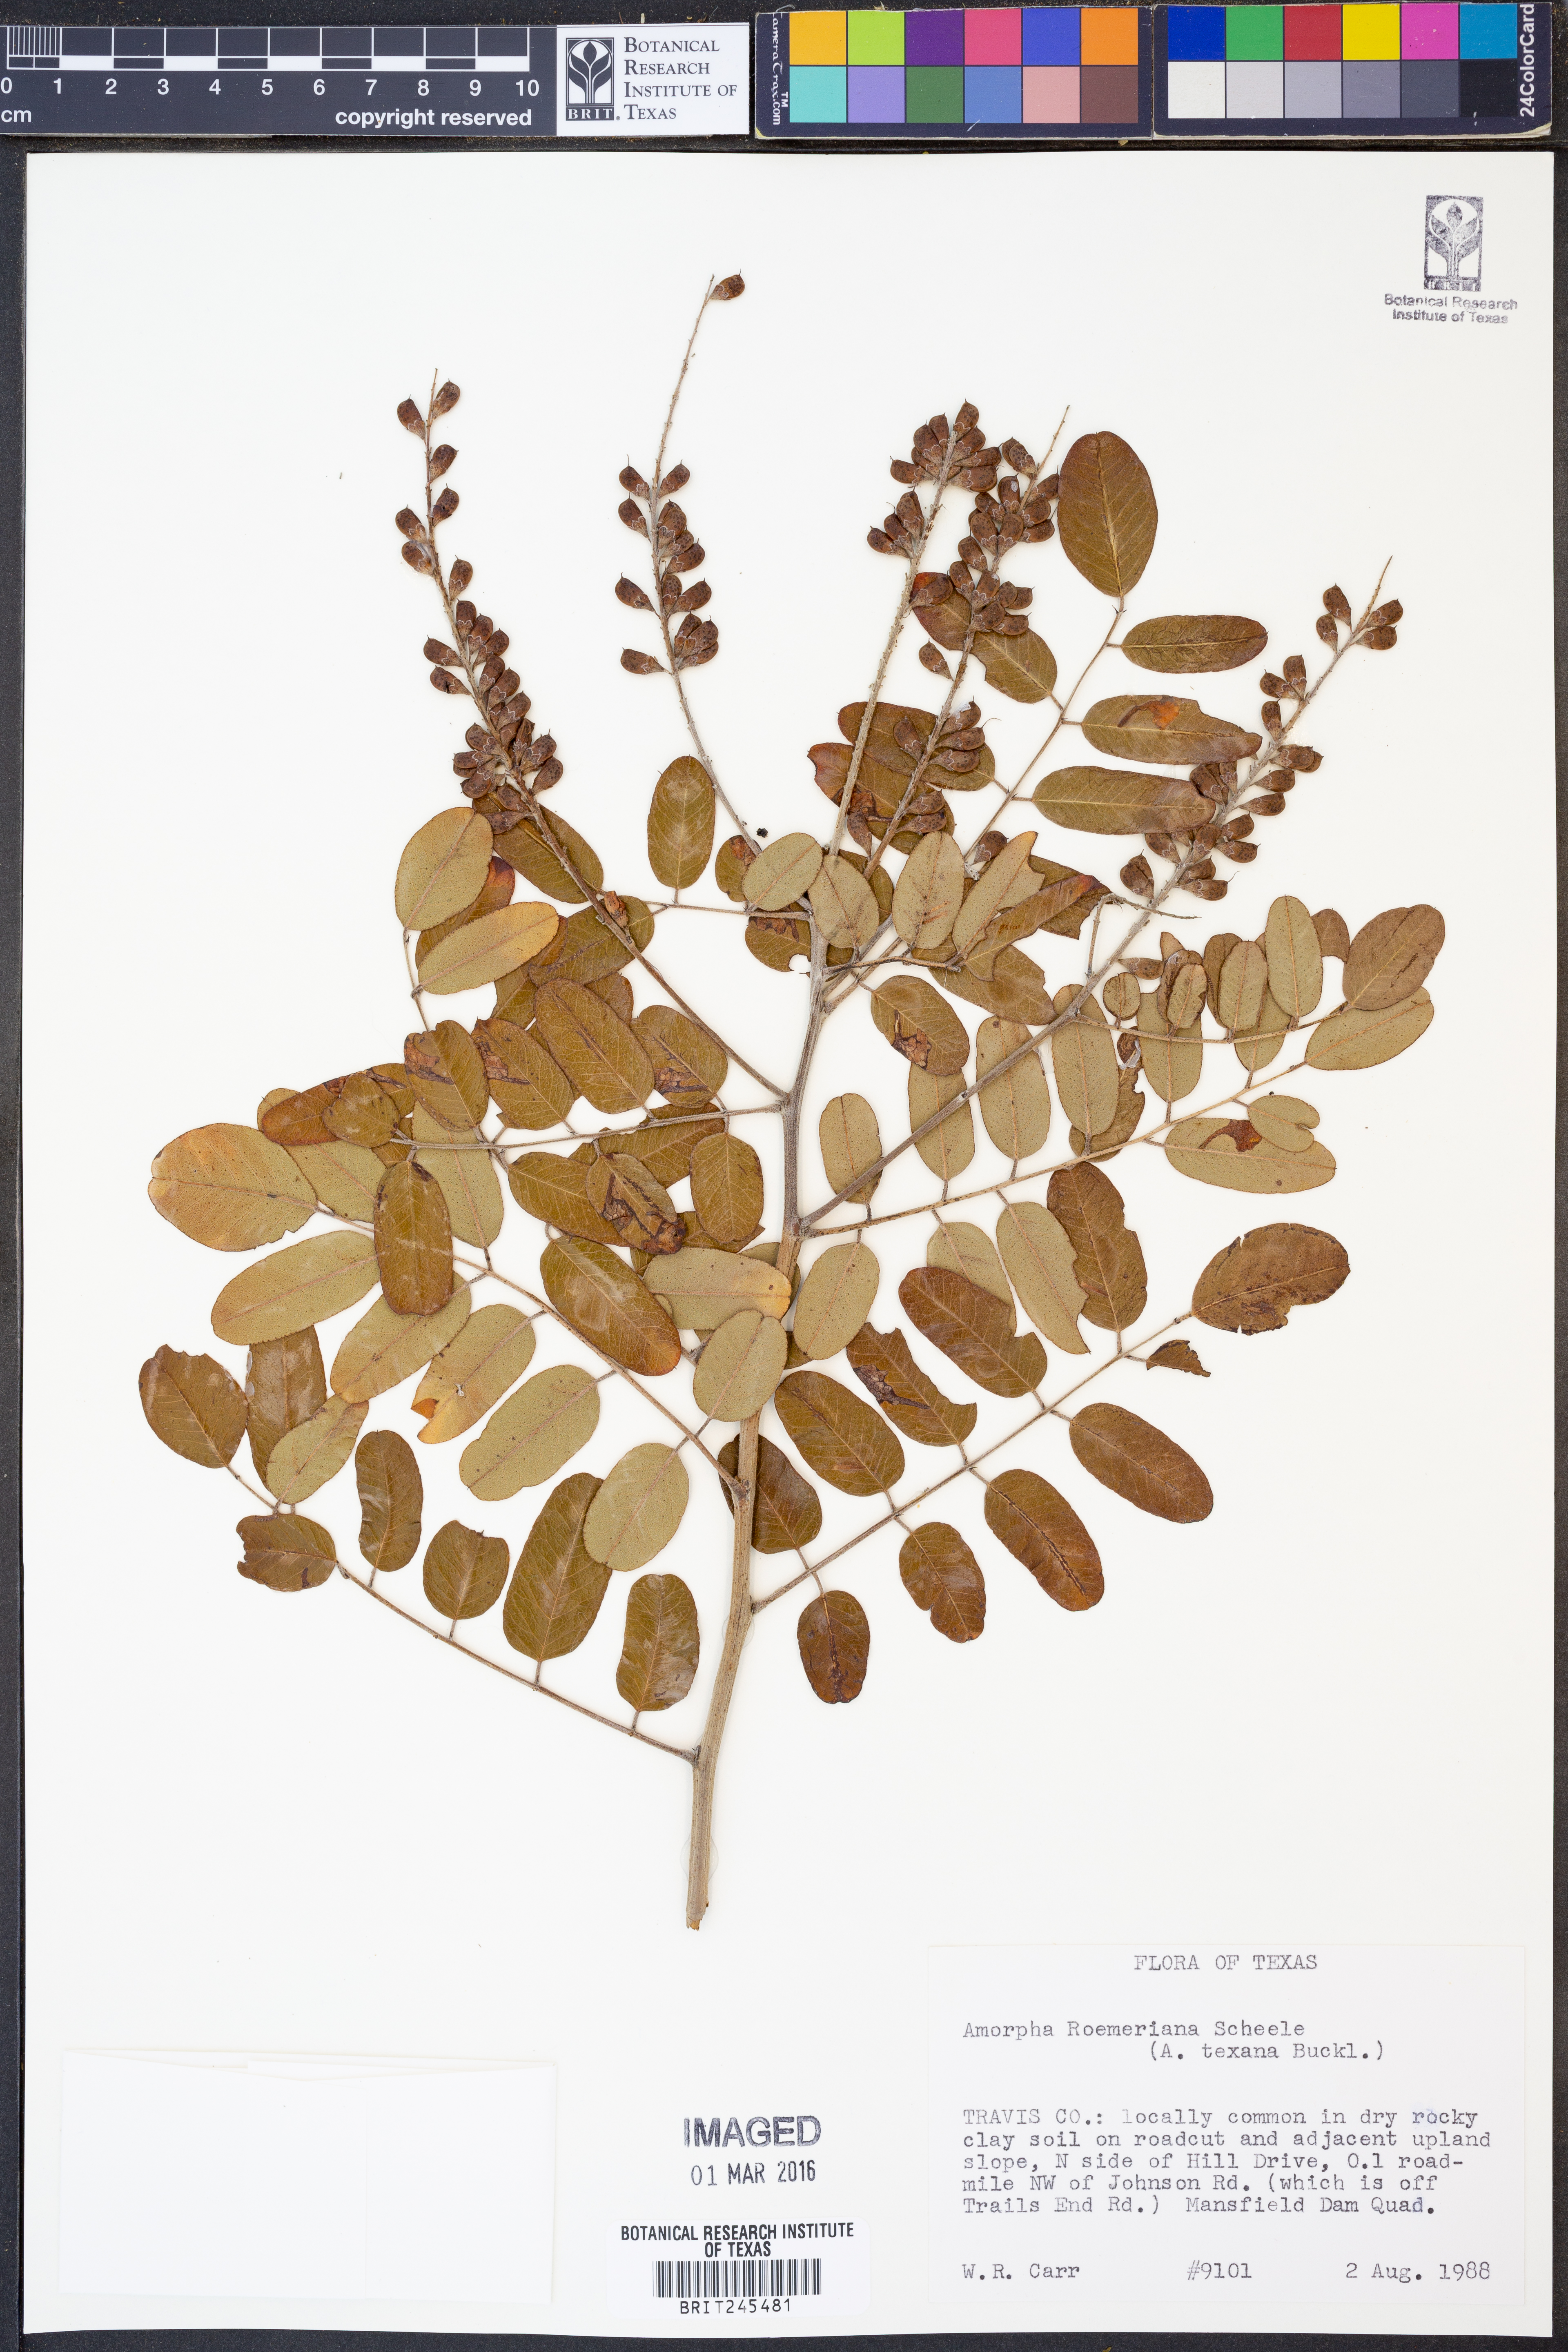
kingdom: Plantae
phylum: Tracheophyta
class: Magnoliopsida
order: Fabales
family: Fabaceae
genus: Amorpha
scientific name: Amorpha roemeriana
